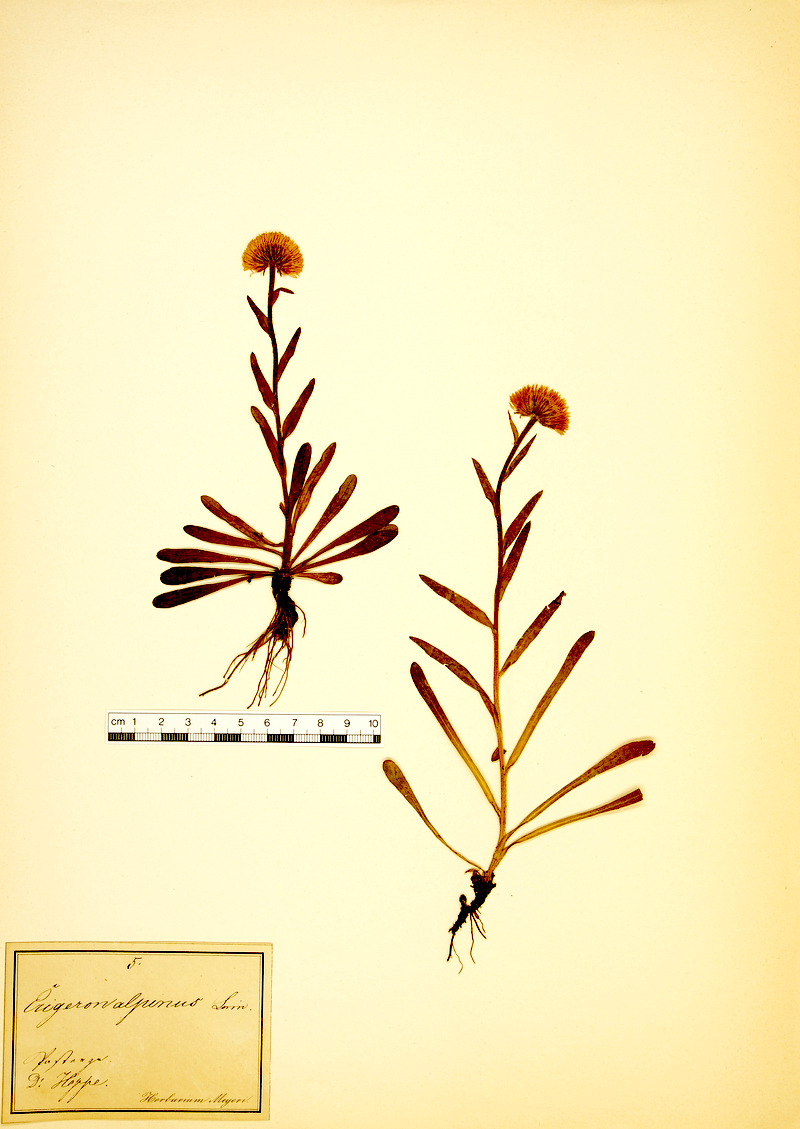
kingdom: Plantae
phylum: Tracheophyta
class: Magnoliopsida
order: Asterales
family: Asteraceae
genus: Erigeron
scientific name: Erigeron alpinus
